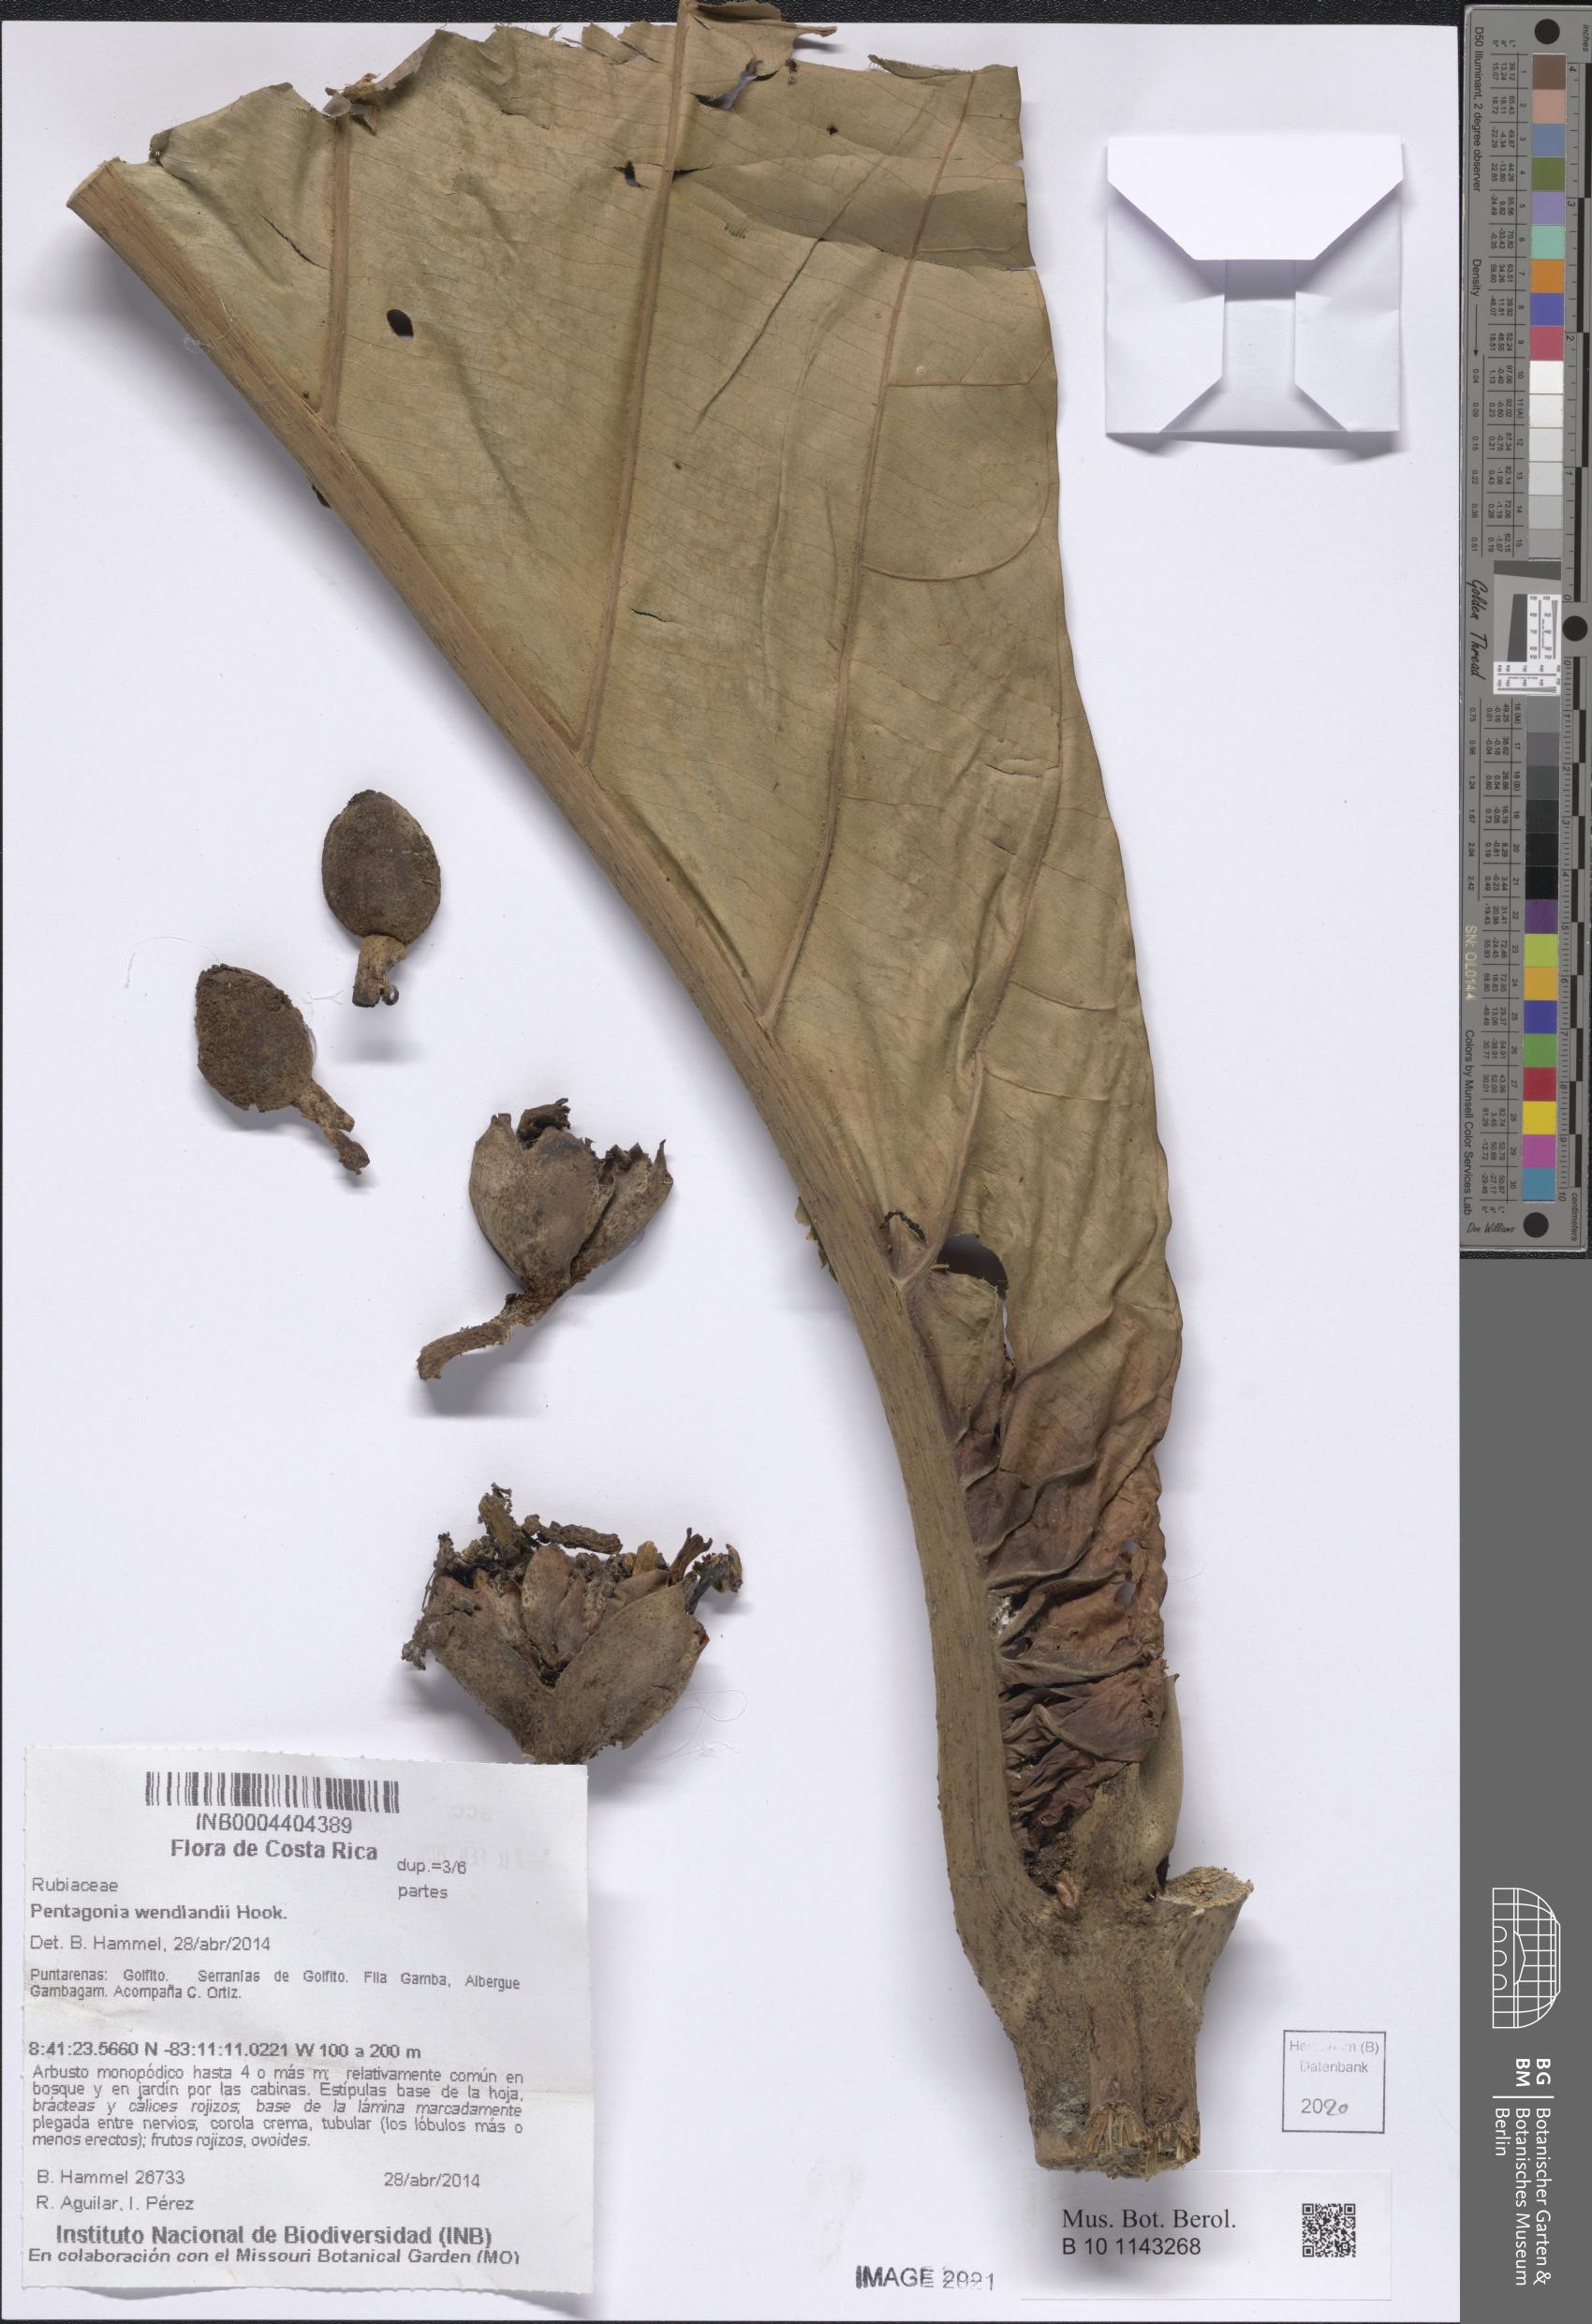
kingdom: Plantae
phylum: Tracheophyta
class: Magnoliopsida
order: Gentianales
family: Rubiaceae
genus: Pentagonia
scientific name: Pentagonia wendlandii
